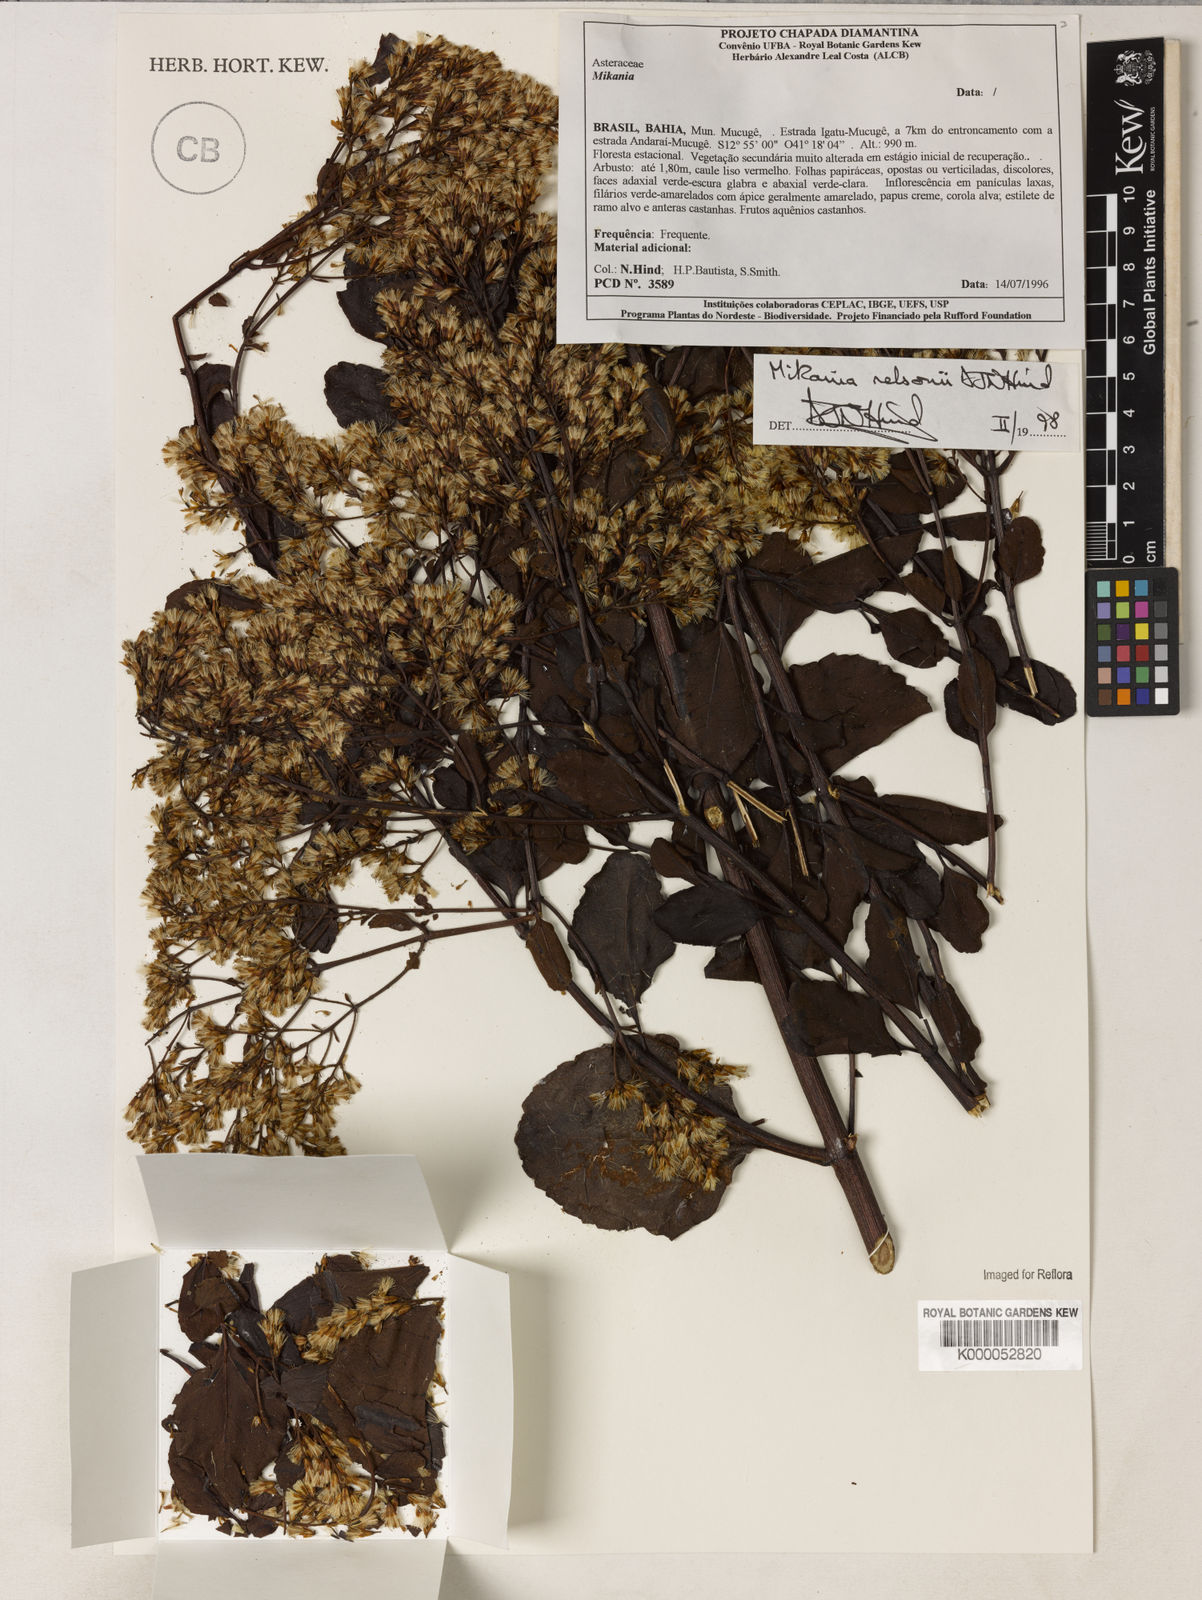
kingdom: Plantae
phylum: Tracheophyta
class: Magnoliopsida
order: Asterales
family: Asteraceae
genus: Mikania
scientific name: Mikania nelsonii
